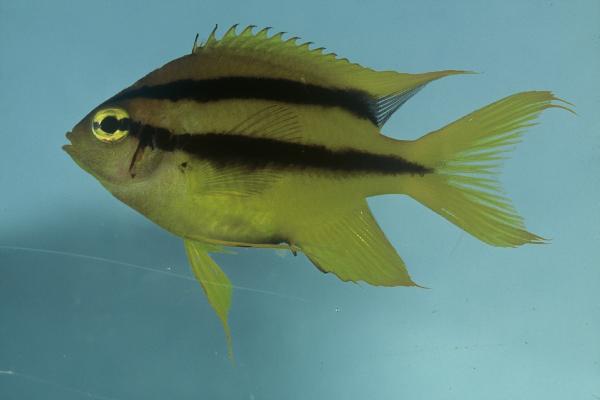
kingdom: Animalia
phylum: Chordata
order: Perciformes
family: Pomacentridae
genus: Neoglyphidodon
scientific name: Neoglyphidodon nigroris
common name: Behn's damsel
